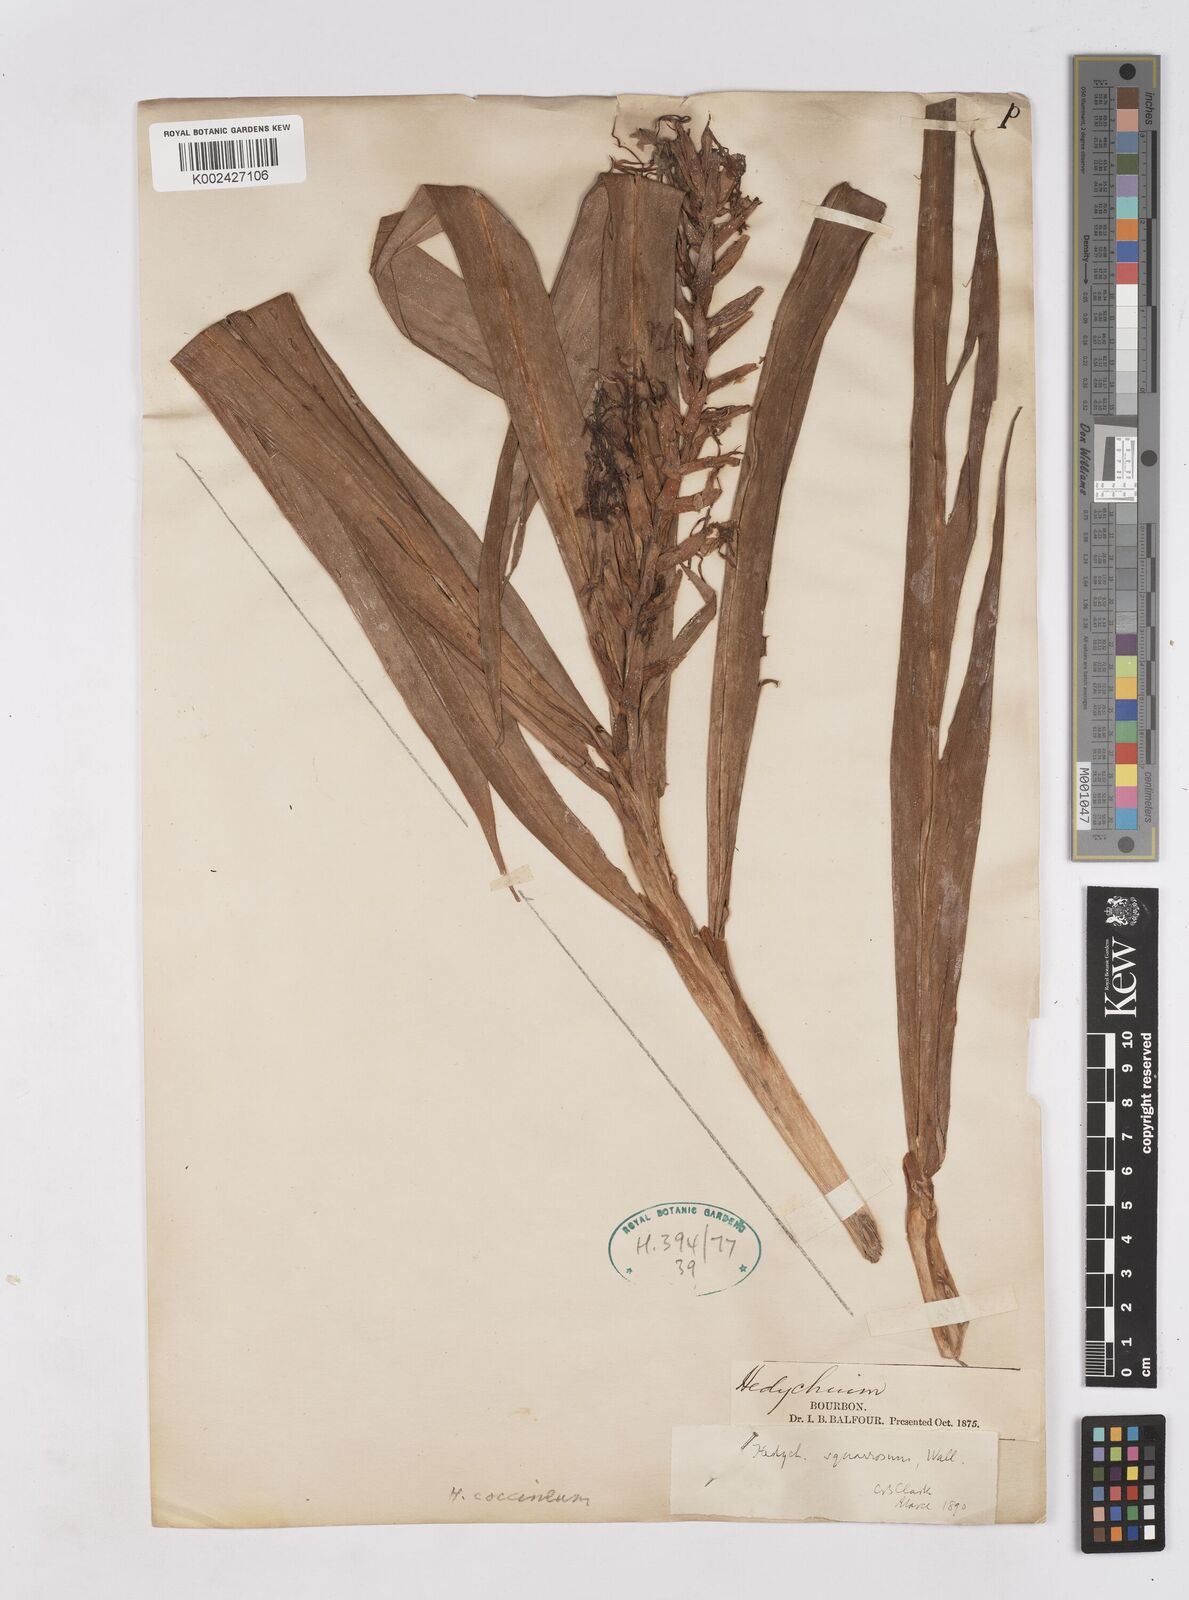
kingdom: Plantae
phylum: Tracheophyta
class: Liliopsida
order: Zingiberales
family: Zingiberaceae
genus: Hedychium
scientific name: Hedychium coccineum
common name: Red ginger-lily
